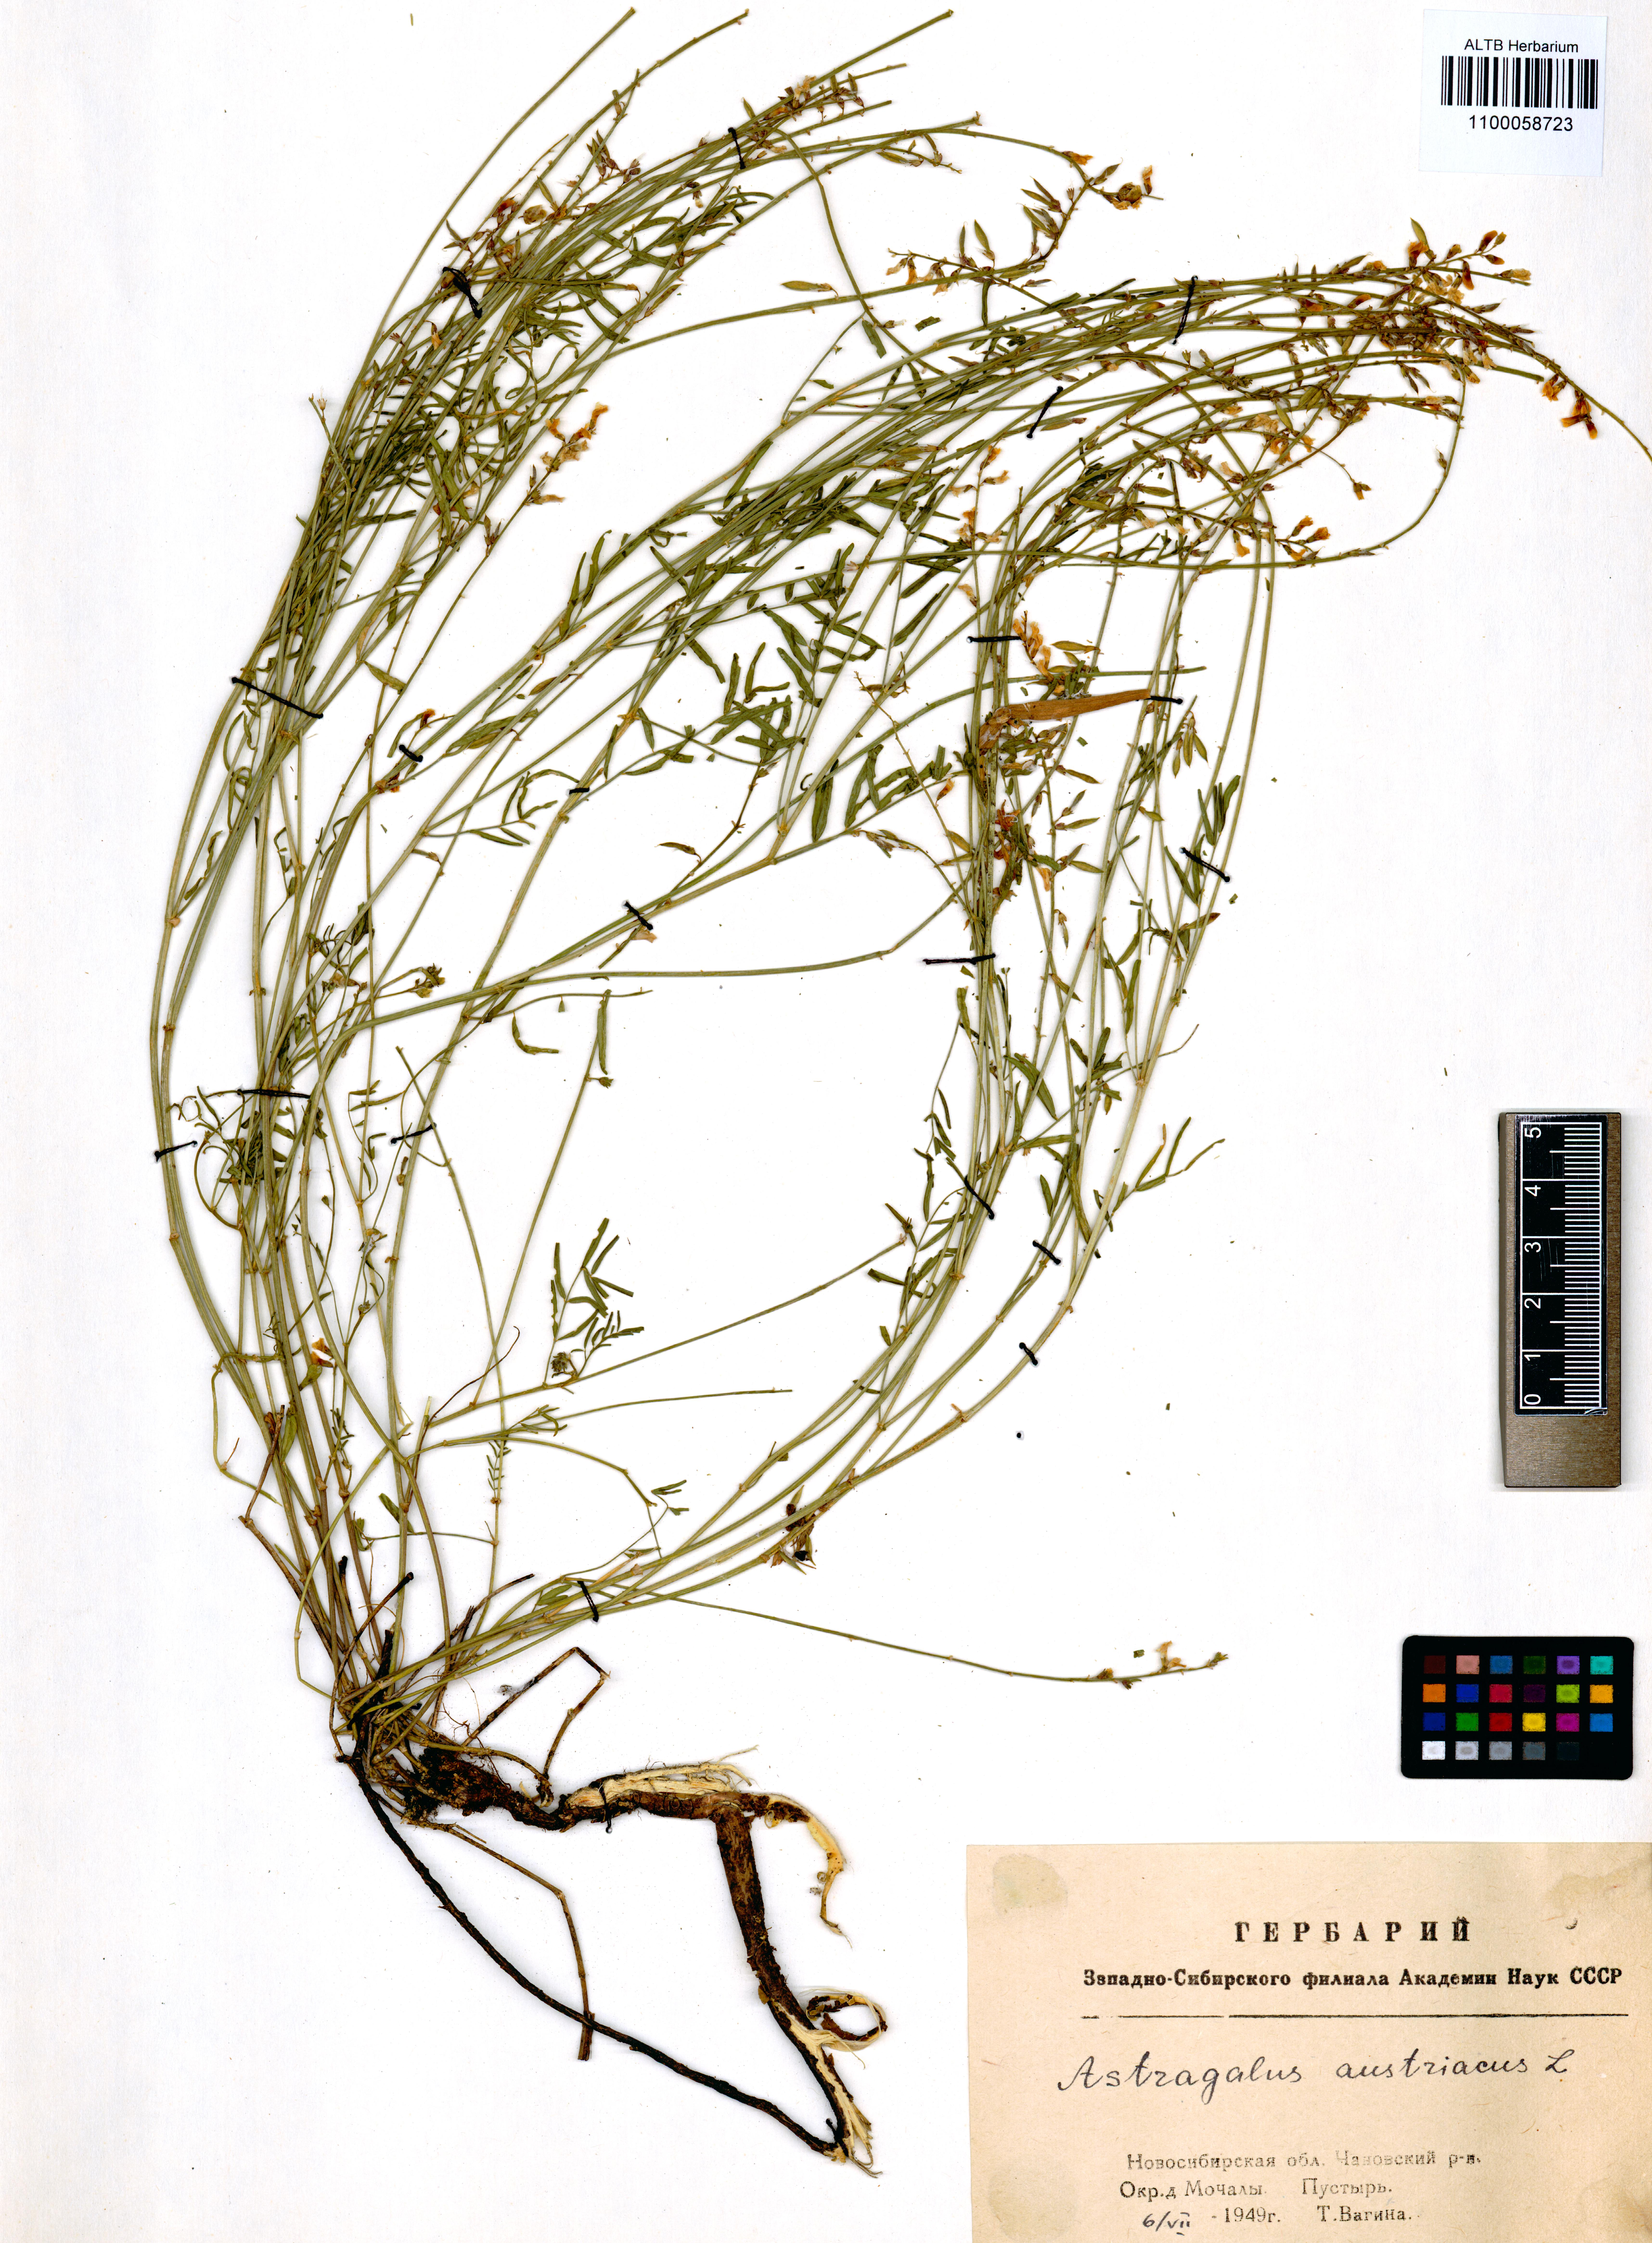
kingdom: Plantae
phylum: Tracheophyta
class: Magnoliopsida
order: Fabales
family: Fabaceae
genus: Astragalus
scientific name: Astragalus austriacus
